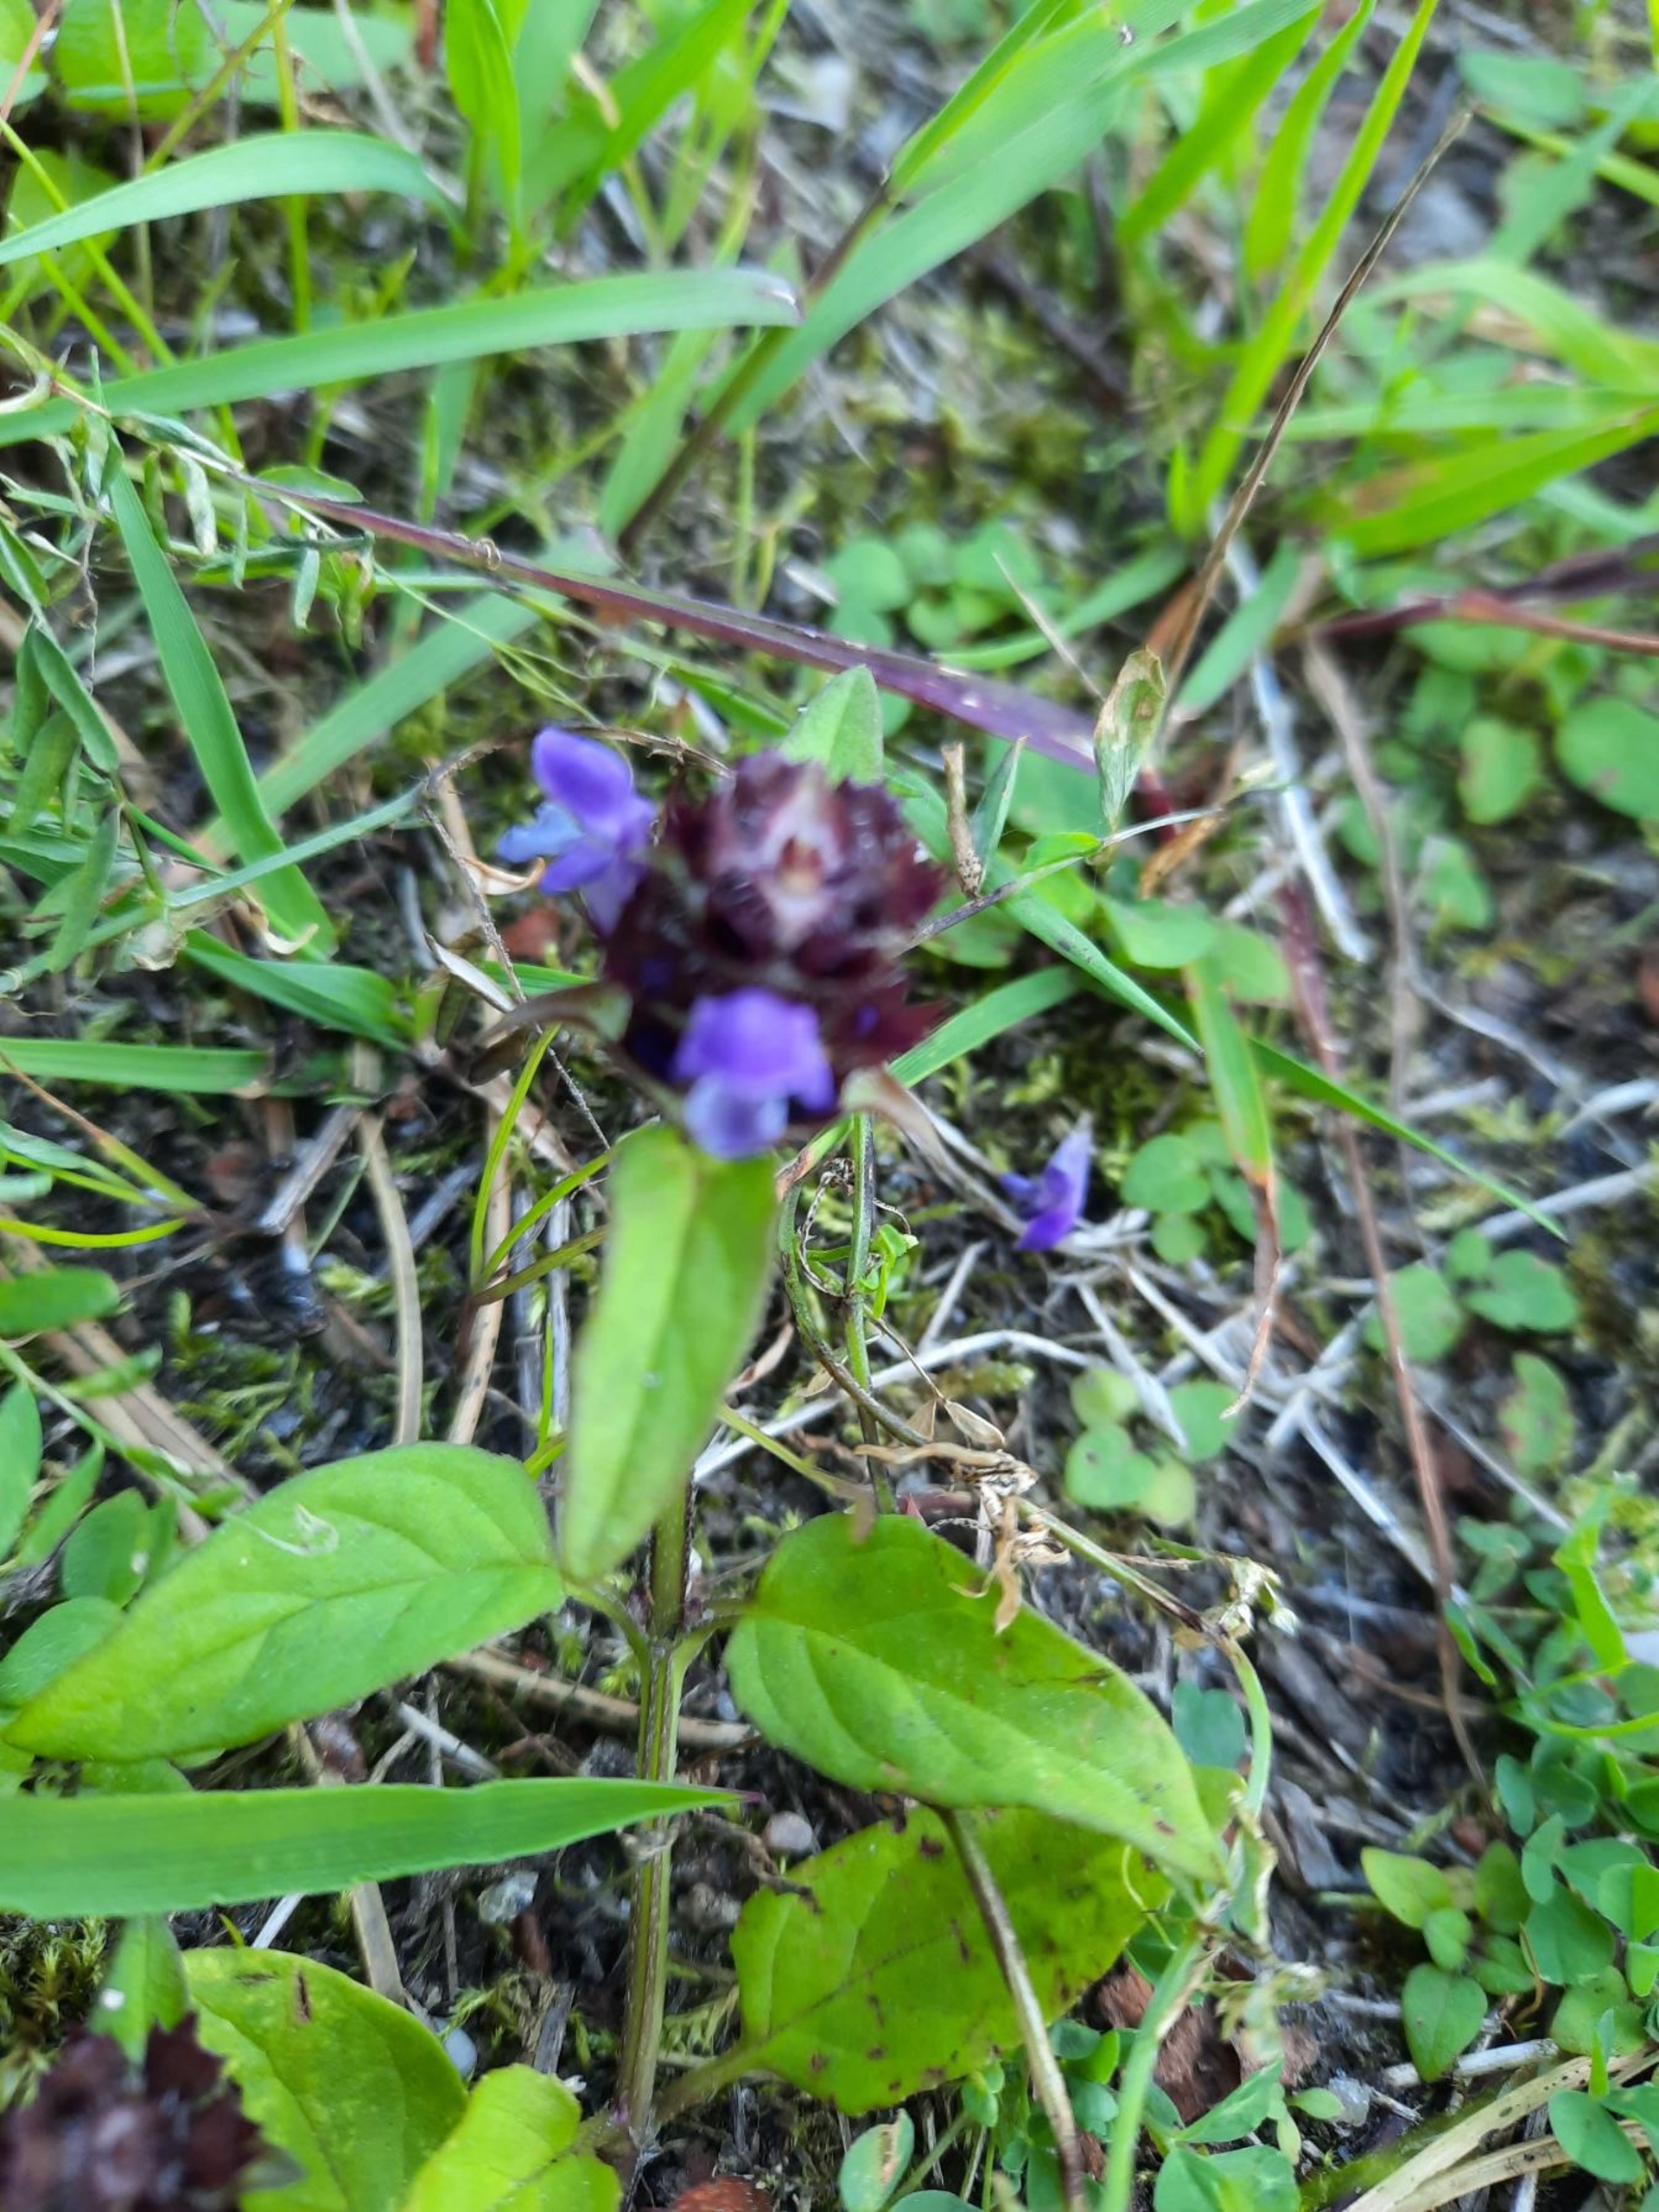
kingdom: Plantae
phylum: Tracheophyta
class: Magnoliopsida
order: Lamiales
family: Lamiaceae
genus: Prunella
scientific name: Prunella vulgaris
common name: Almindelig brunelle
